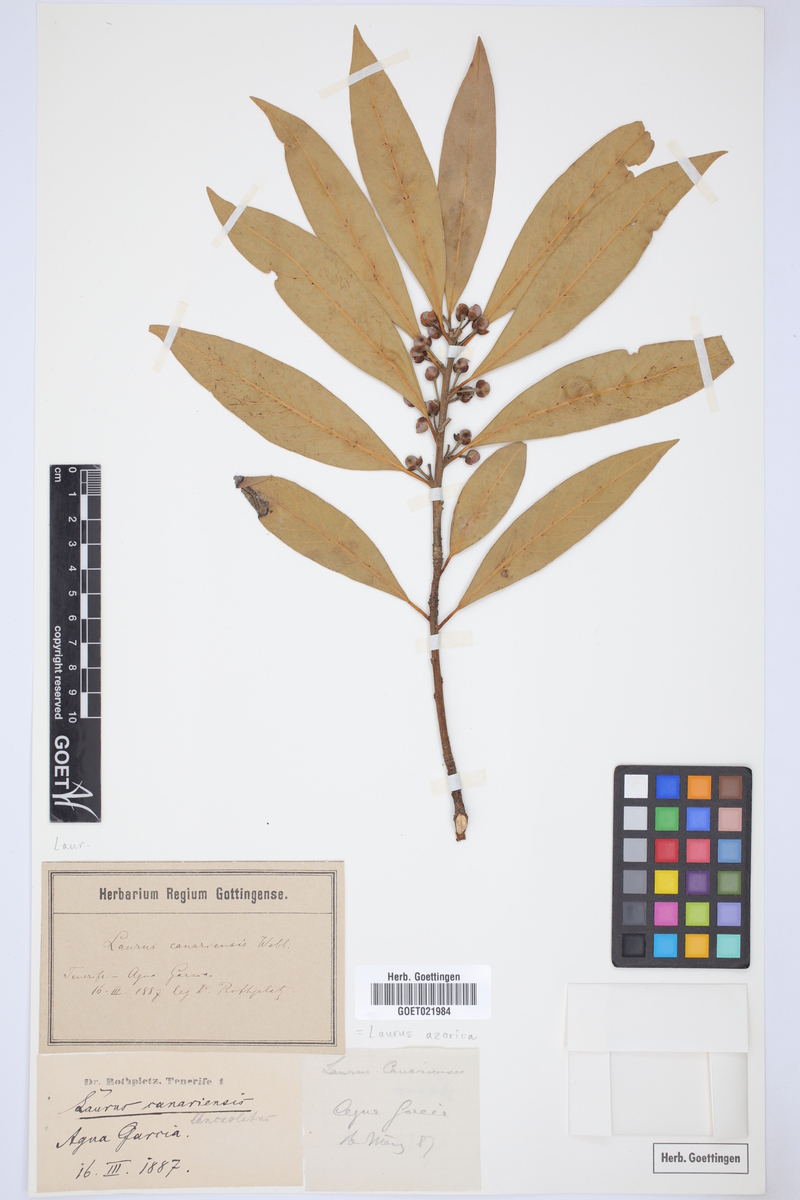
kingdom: Plantae
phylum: Tracheophyta
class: Magnoliopsida
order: Laurales
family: Lauraceae
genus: Laurus
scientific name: Laurus azorica
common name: Macaronesian laurel
